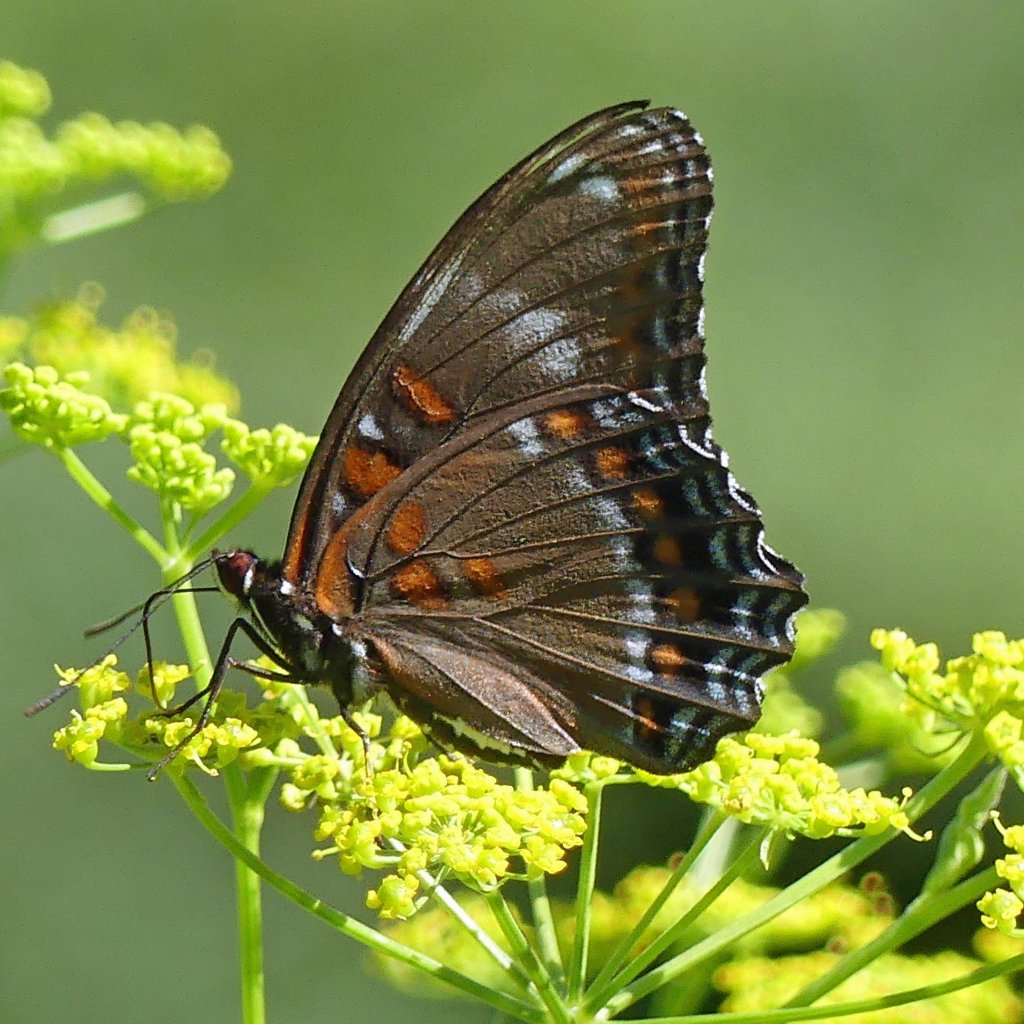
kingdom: Animalia
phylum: Arthropoda
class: Insecta
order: Lepidoptera
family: Nymphalidae
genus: Limenitis
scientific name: Limenitis
